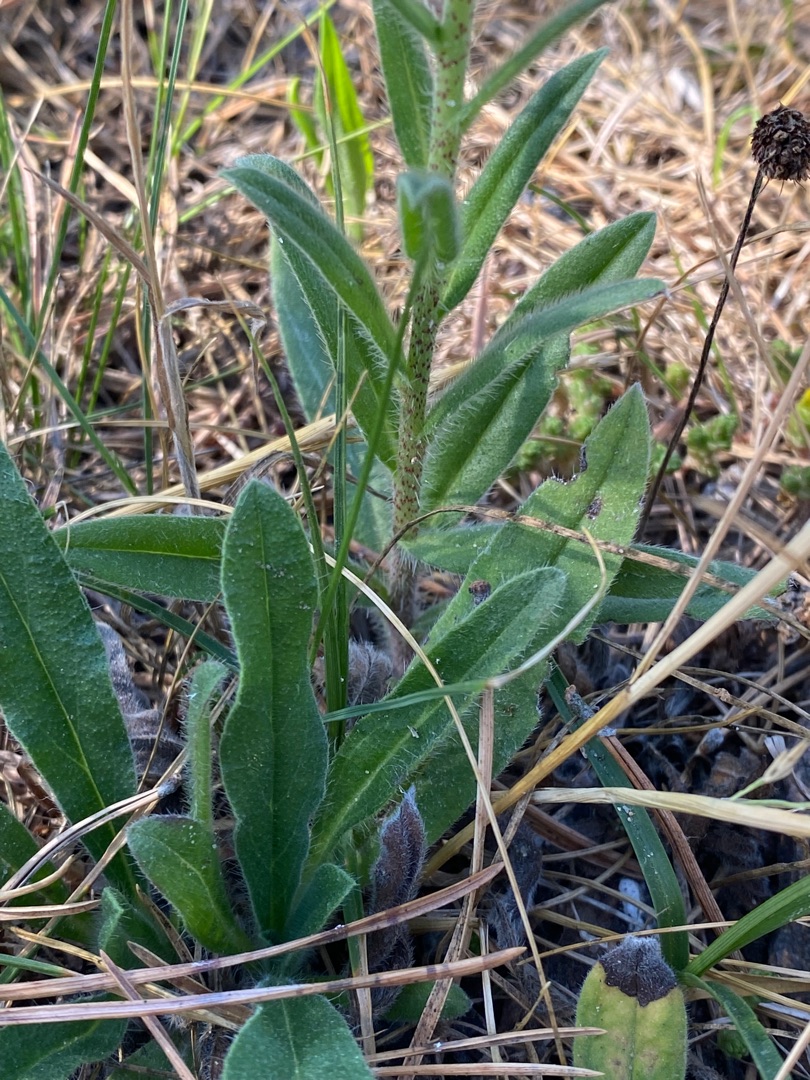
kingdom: Plantae
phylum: Tracheophyta
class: Magnoliopsida
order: Boraginales
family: Boraginaceae
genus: Echium
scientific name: Echium vulgare
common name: Slangehoved
